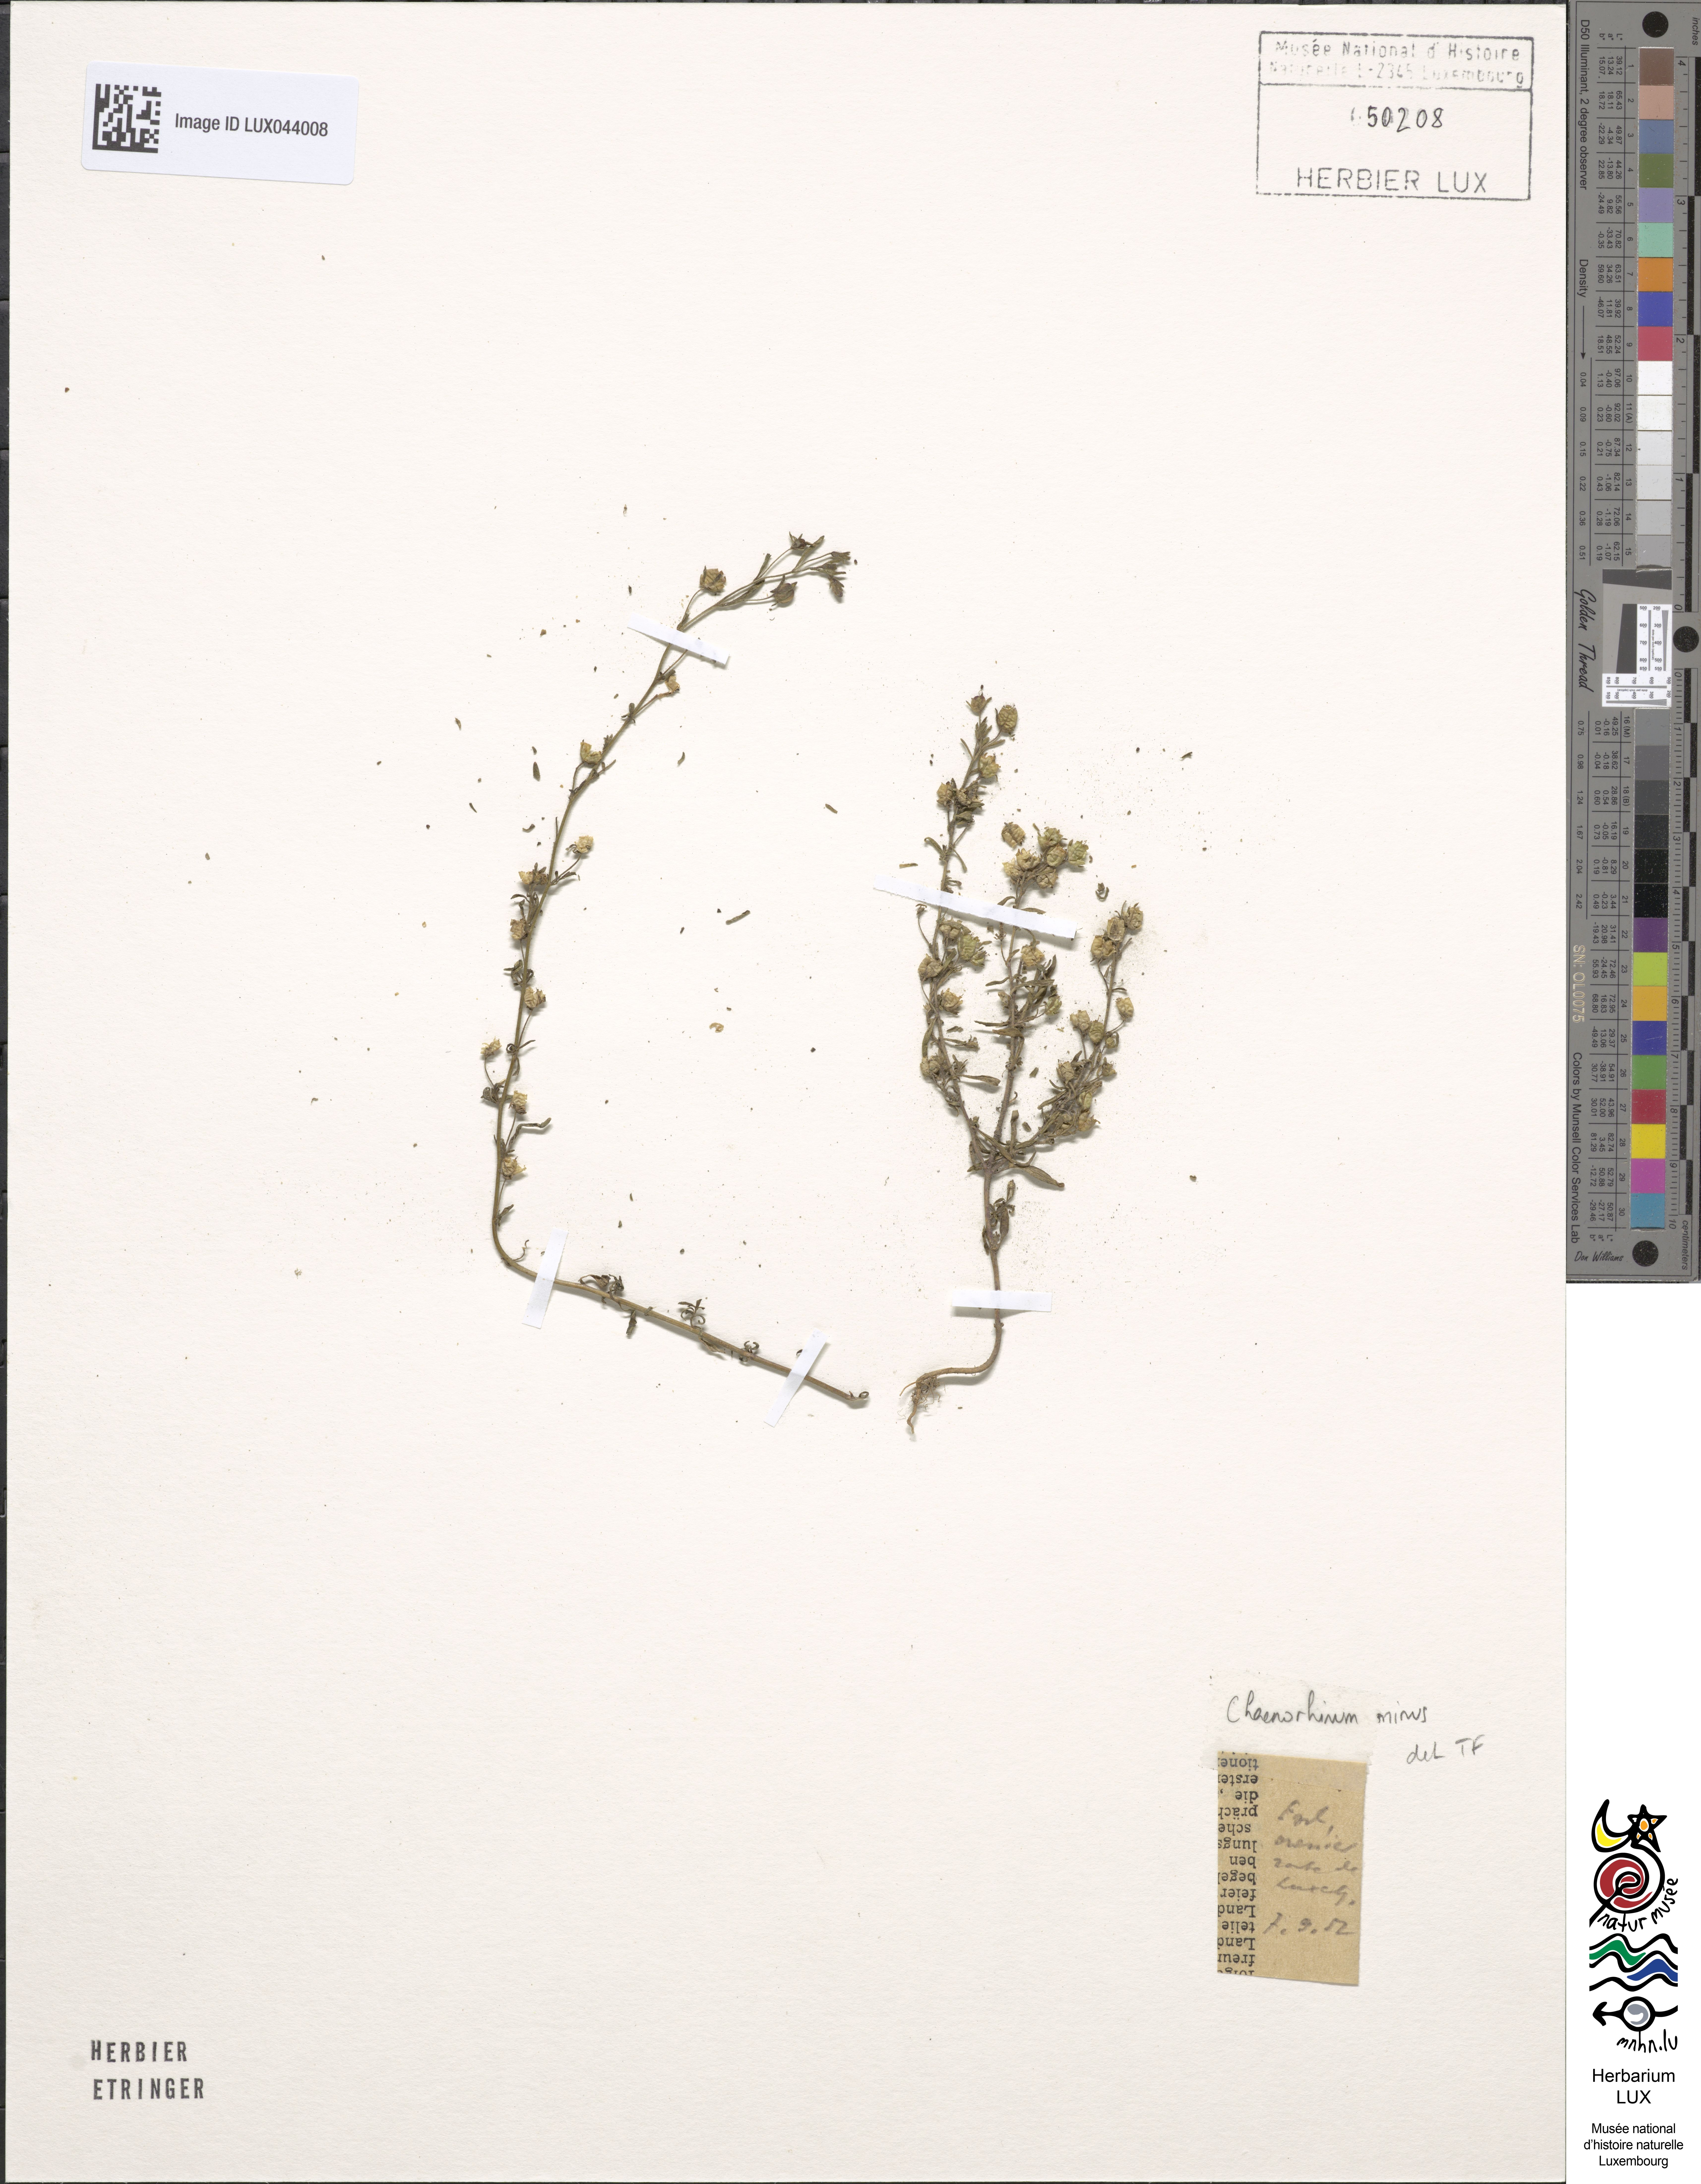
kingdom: Plantae
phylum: Tracheophyta
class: Magnoliopsida
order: Lamiales
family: Plantaginaceae
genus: Chaenorhinum
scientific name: Chaenorhinum minus
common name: Dwarf snapdragon
